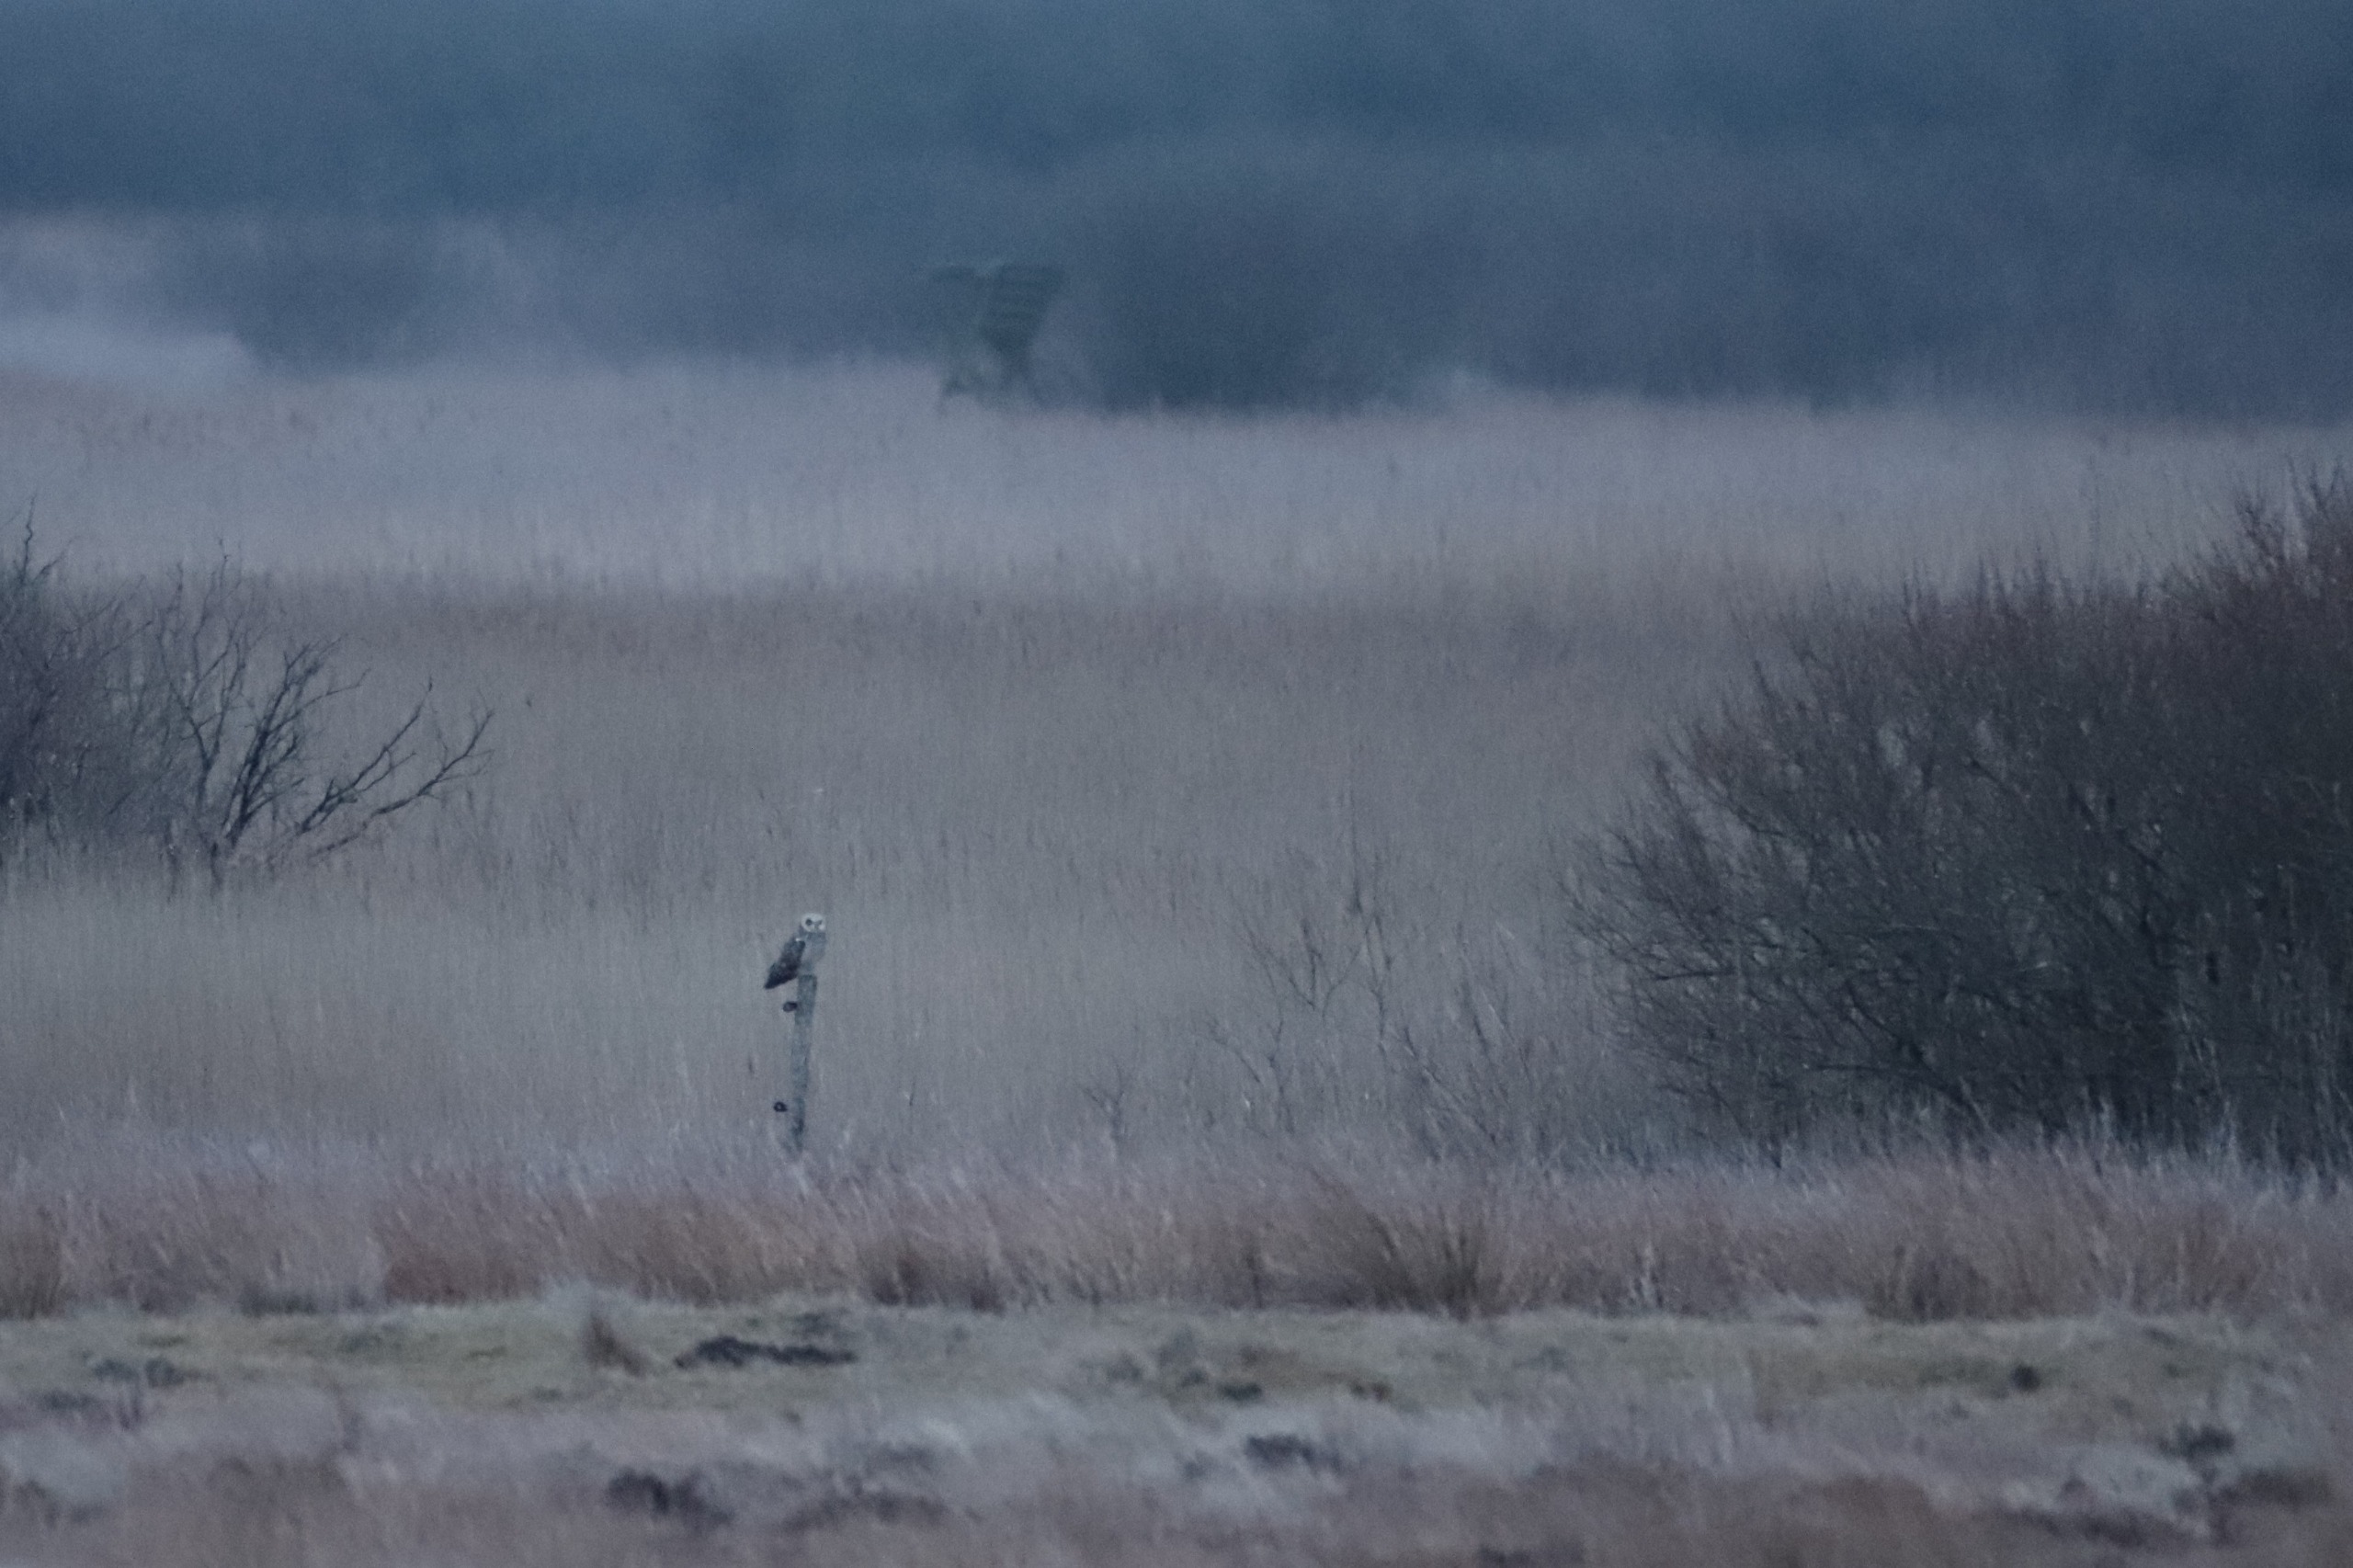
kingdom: Animalia
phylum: Chordata
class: Aves
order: Strigiformes
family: Strigidae
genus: Asio
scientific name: Asio flammeus
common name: Mosehornugle
